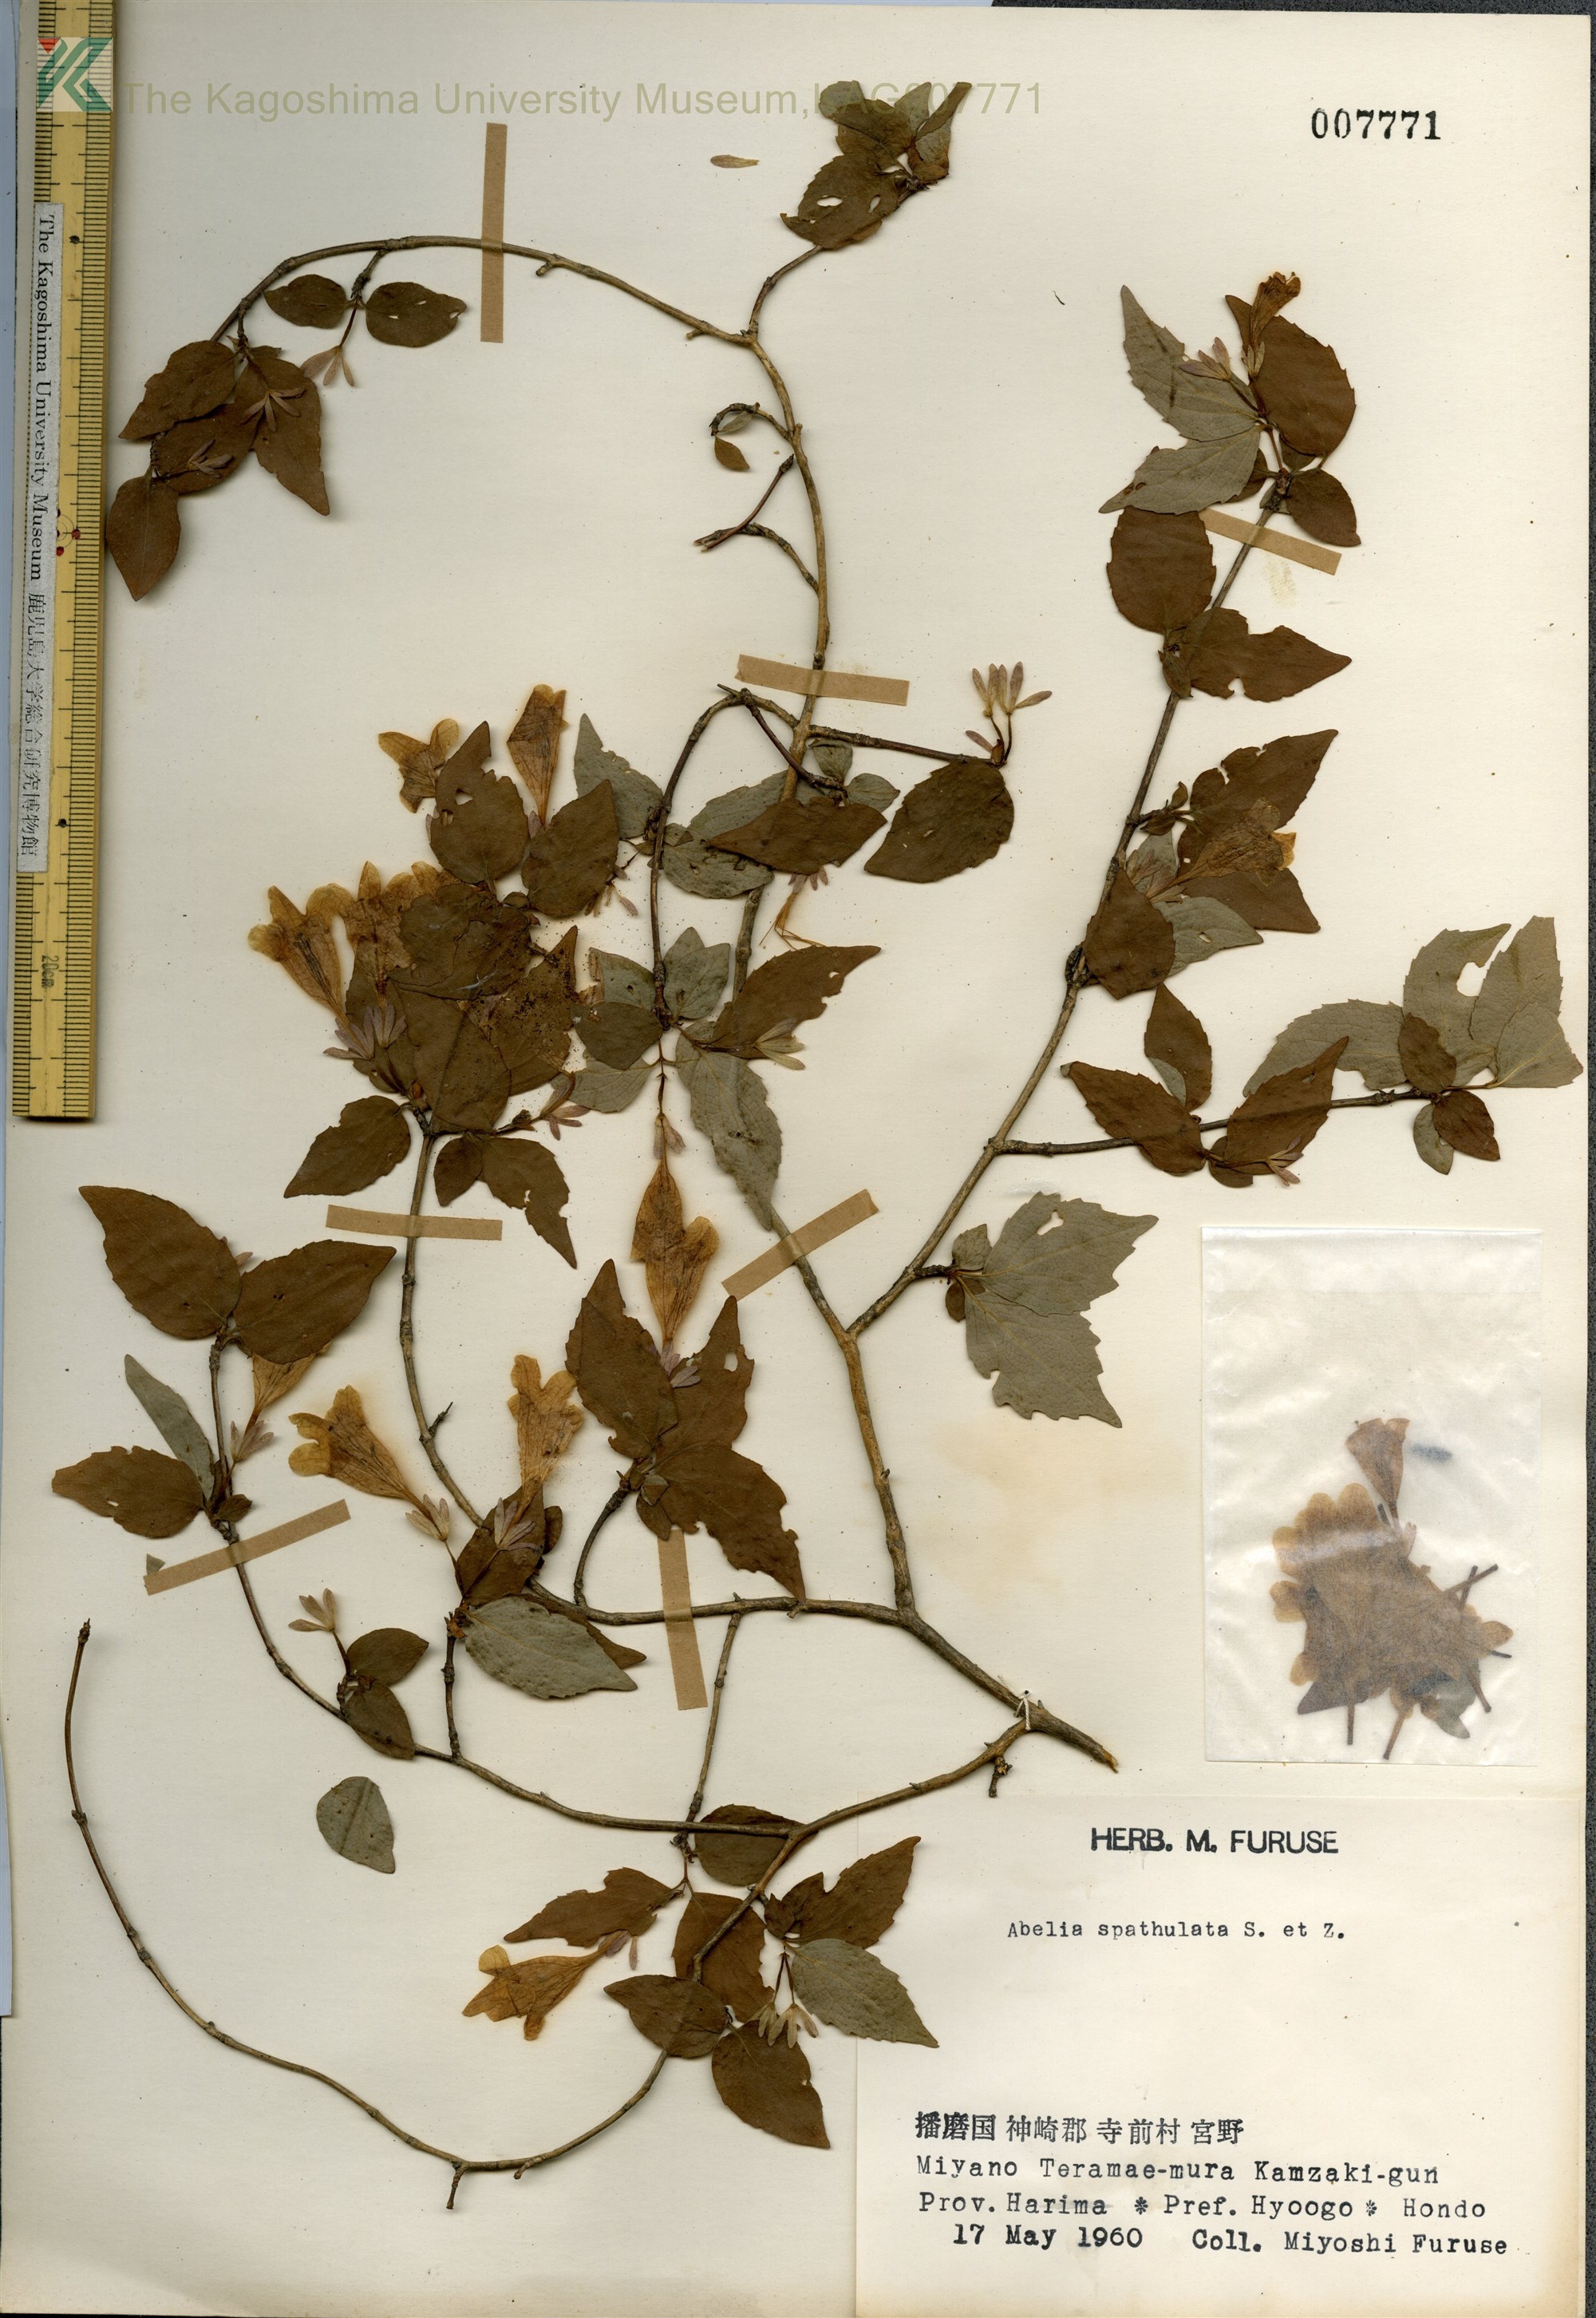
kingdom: Plantae
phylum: Tracheophyta
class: Magnoliopsida
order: Dipsacales
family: Caprifoliaceae
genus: Diabelia
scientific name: Diabelia spathulata
